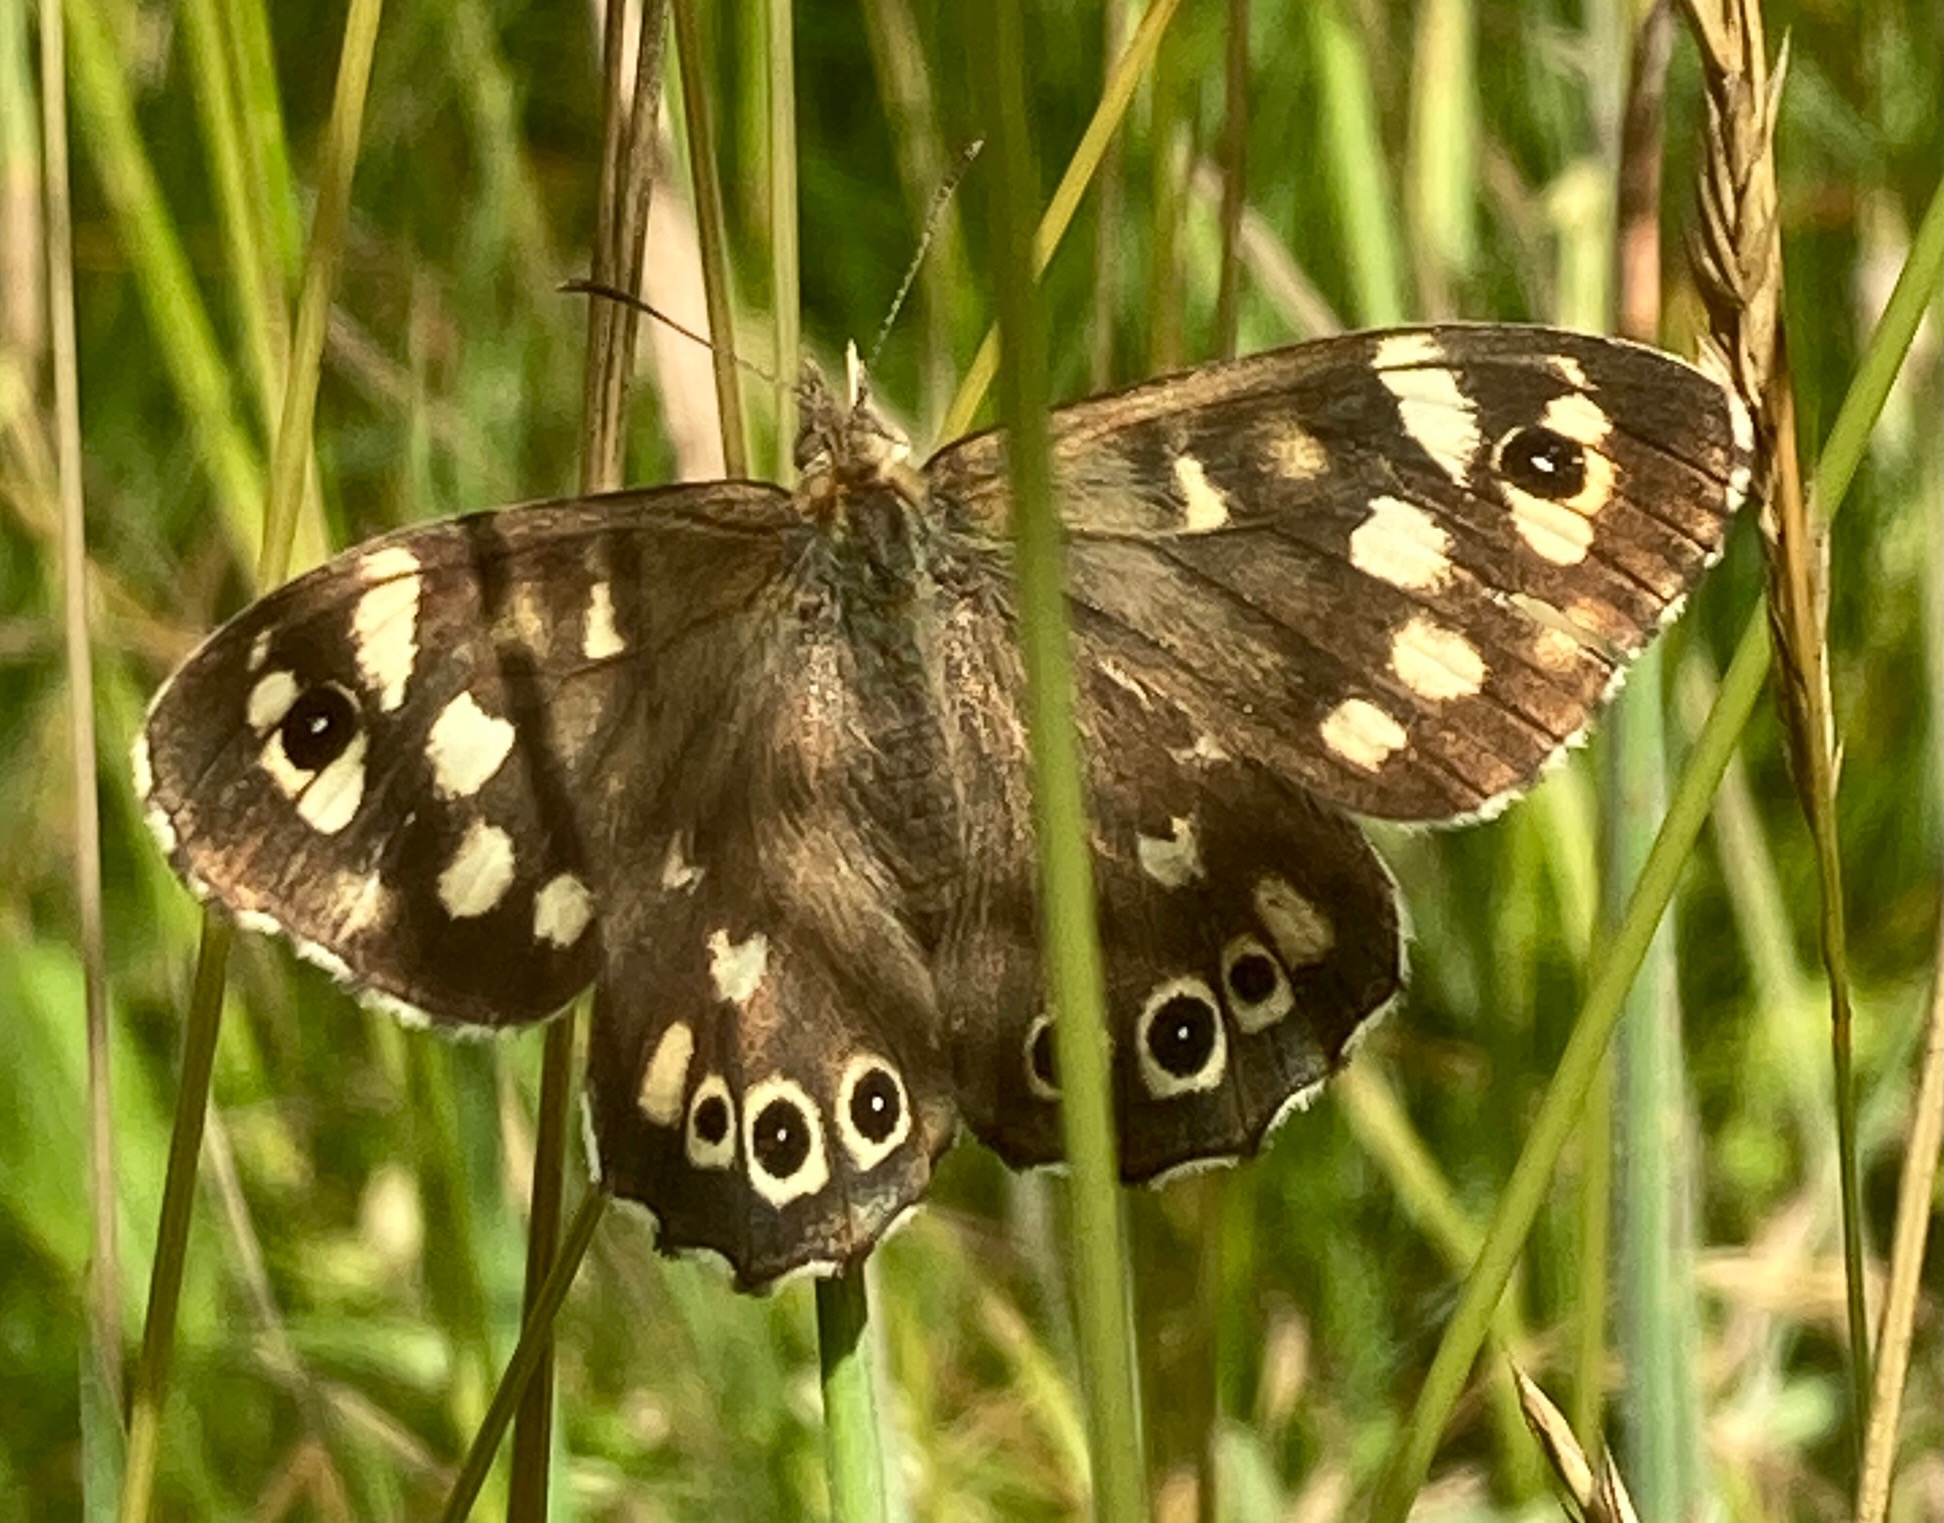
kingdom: Animalia
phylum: Arthropoda
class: Insecta
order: Lepidoptera
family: Nymphalidae
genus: Pararge
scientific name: Pararge aegeria
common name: Skovrandøje
